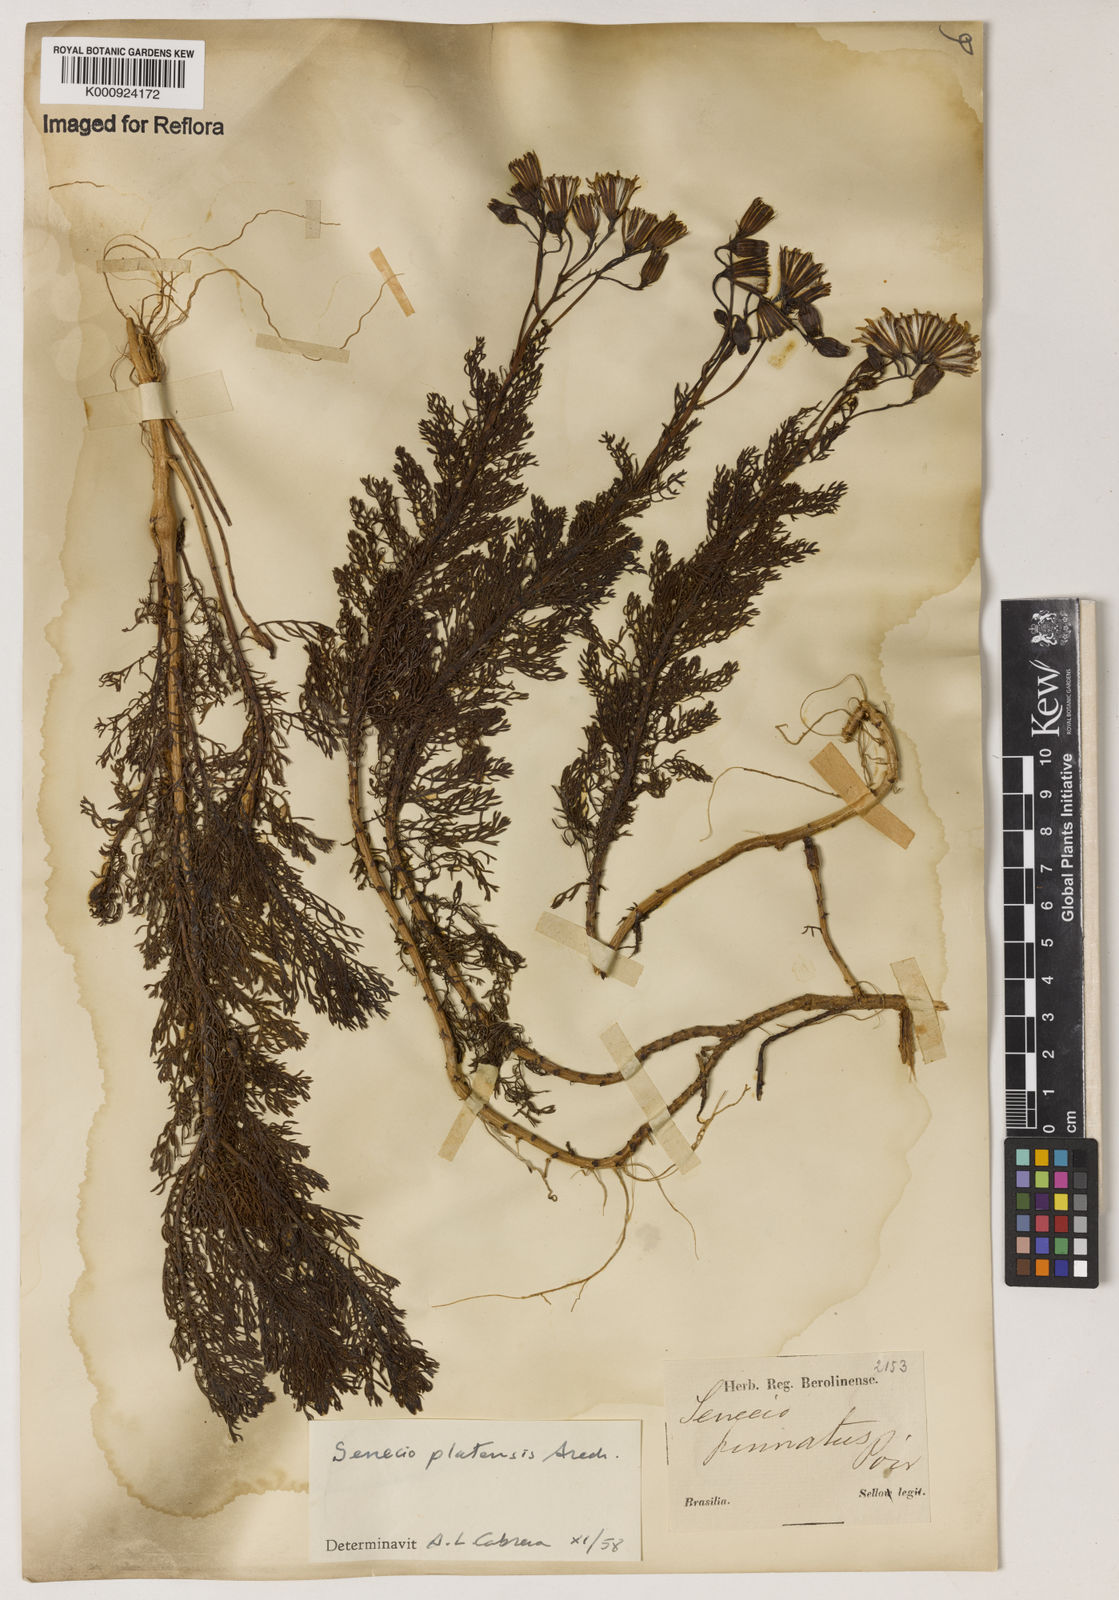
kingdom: Plantae
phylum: Tracheophyta
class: Magnoliopsida
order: Asterales
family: Asteraceae
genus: Senecio
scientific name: Senecio platensis
